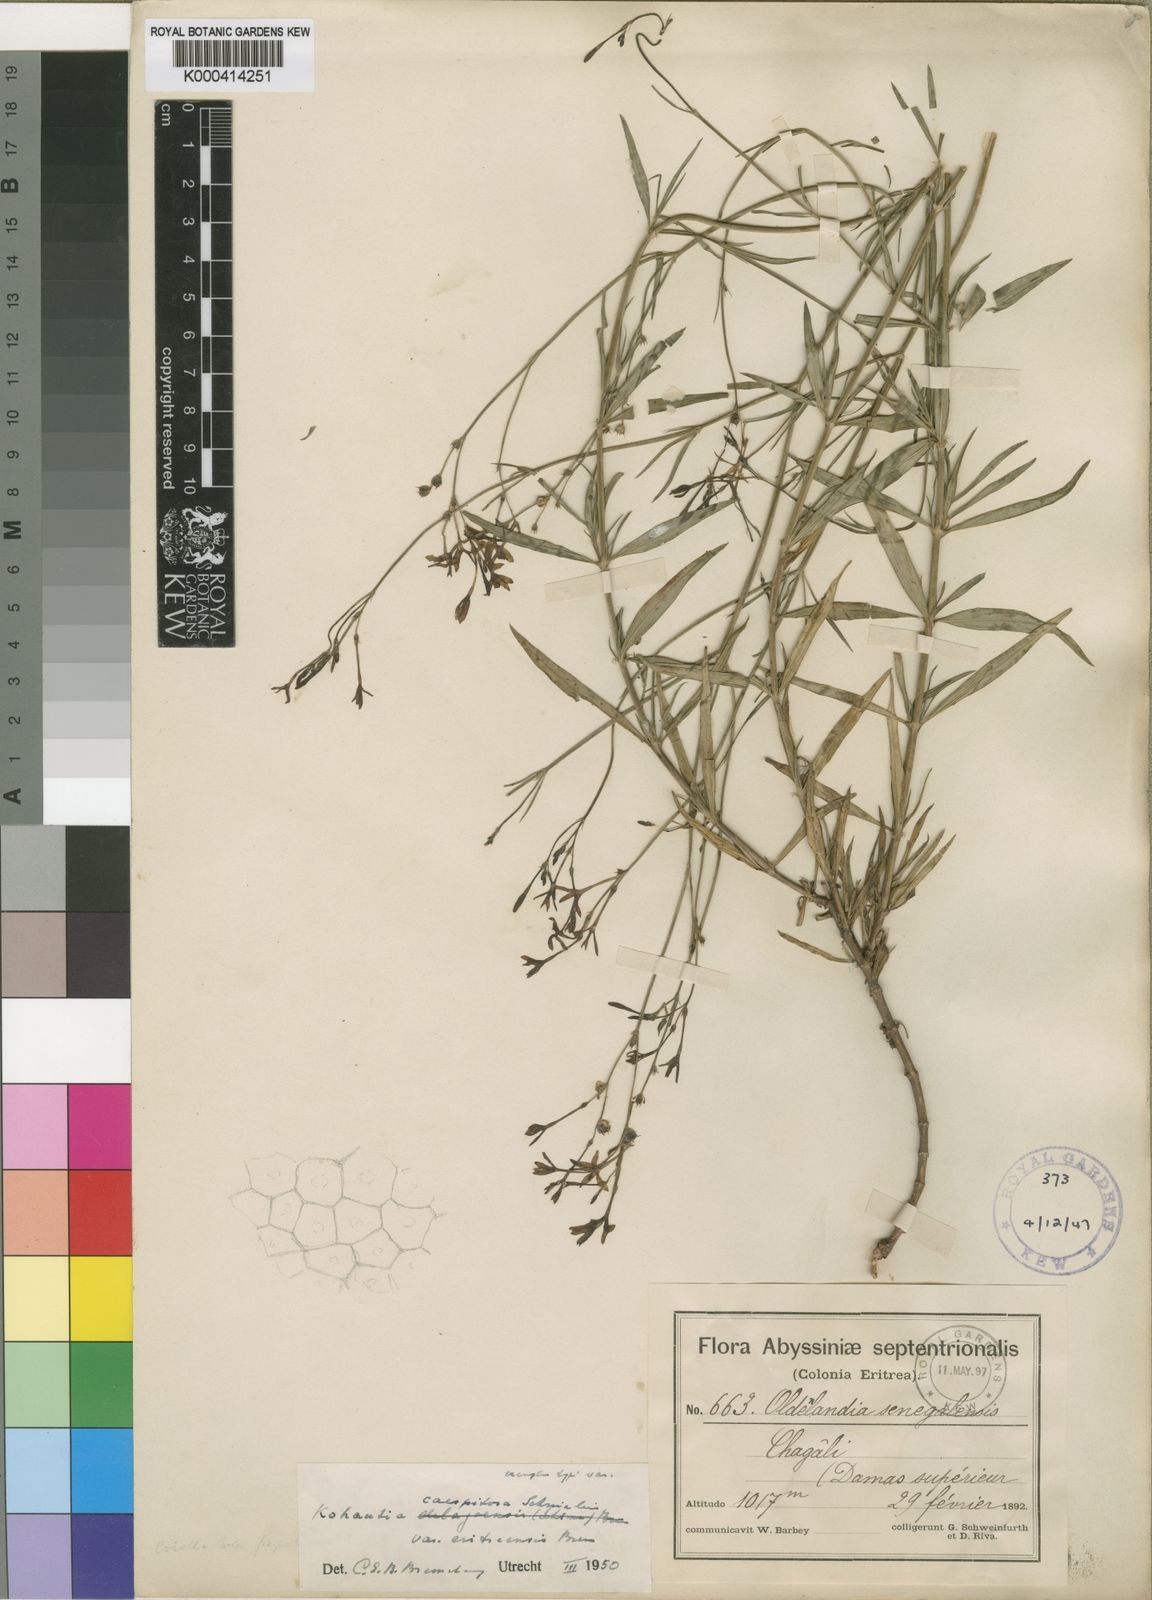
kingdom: Plantae
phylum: Tracheophyta
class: Magnoliopsida
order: Gentianales
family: Rubiaceae
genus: Kohautia
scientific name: Kohautia caespitosa
